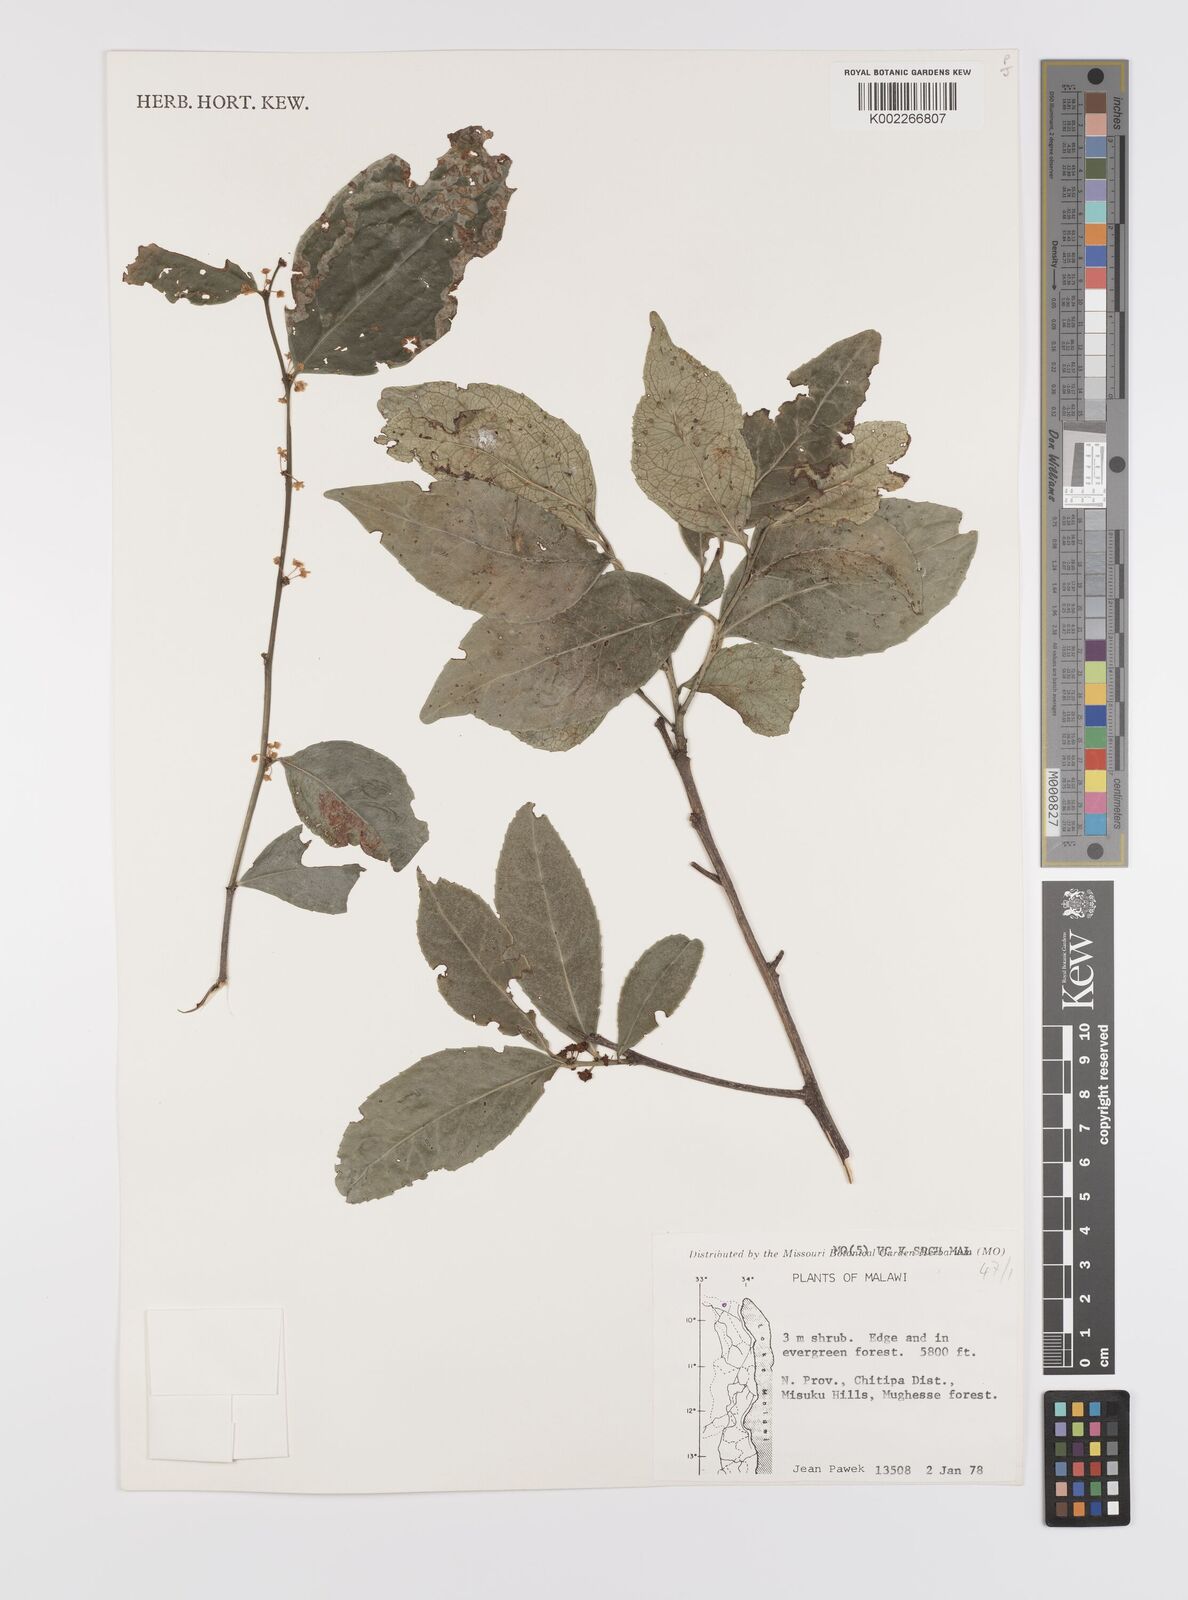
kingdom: Plantae
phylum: Tracheophyta
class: Magnoliopsida
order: Celastrales
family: Celastraceae
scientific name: Celastraceae
